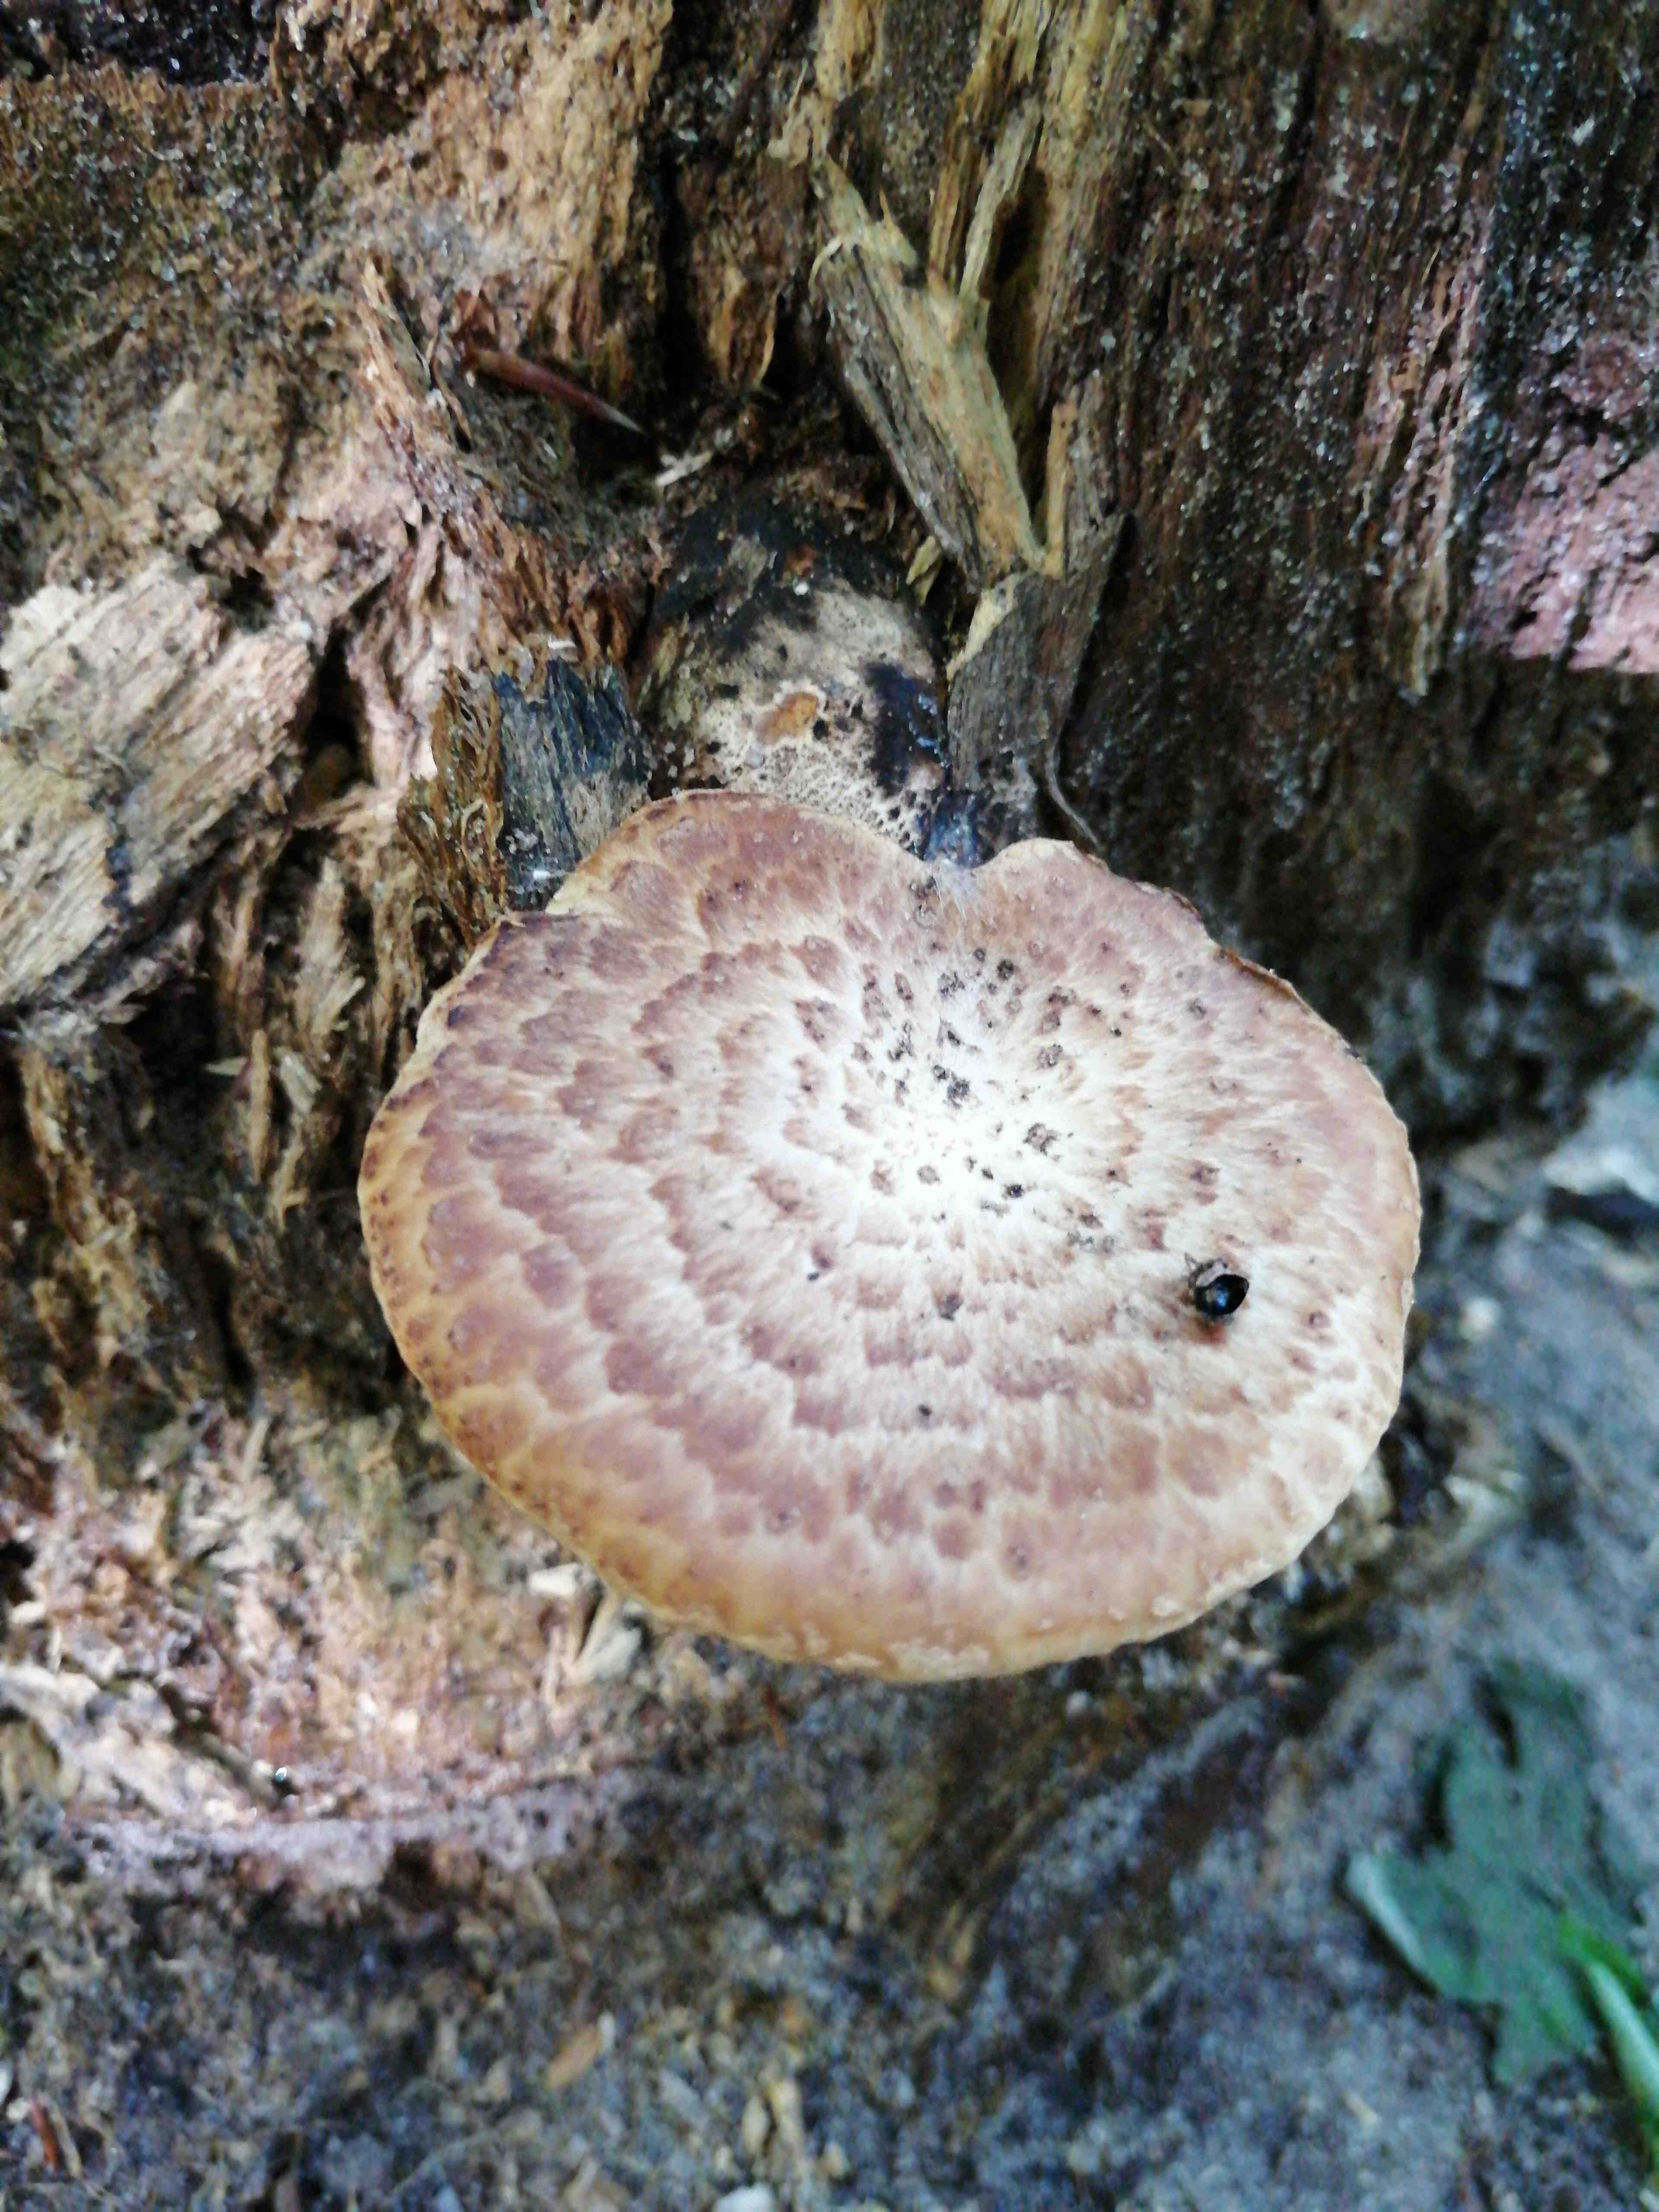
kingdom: Fungi
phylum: Basidiomycota
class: Agaricomycetes
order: Polyporales
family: Polyporaceae
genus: Cerioporus
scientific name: Cerioporus squamosus
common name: skællet stilkporesvamp
